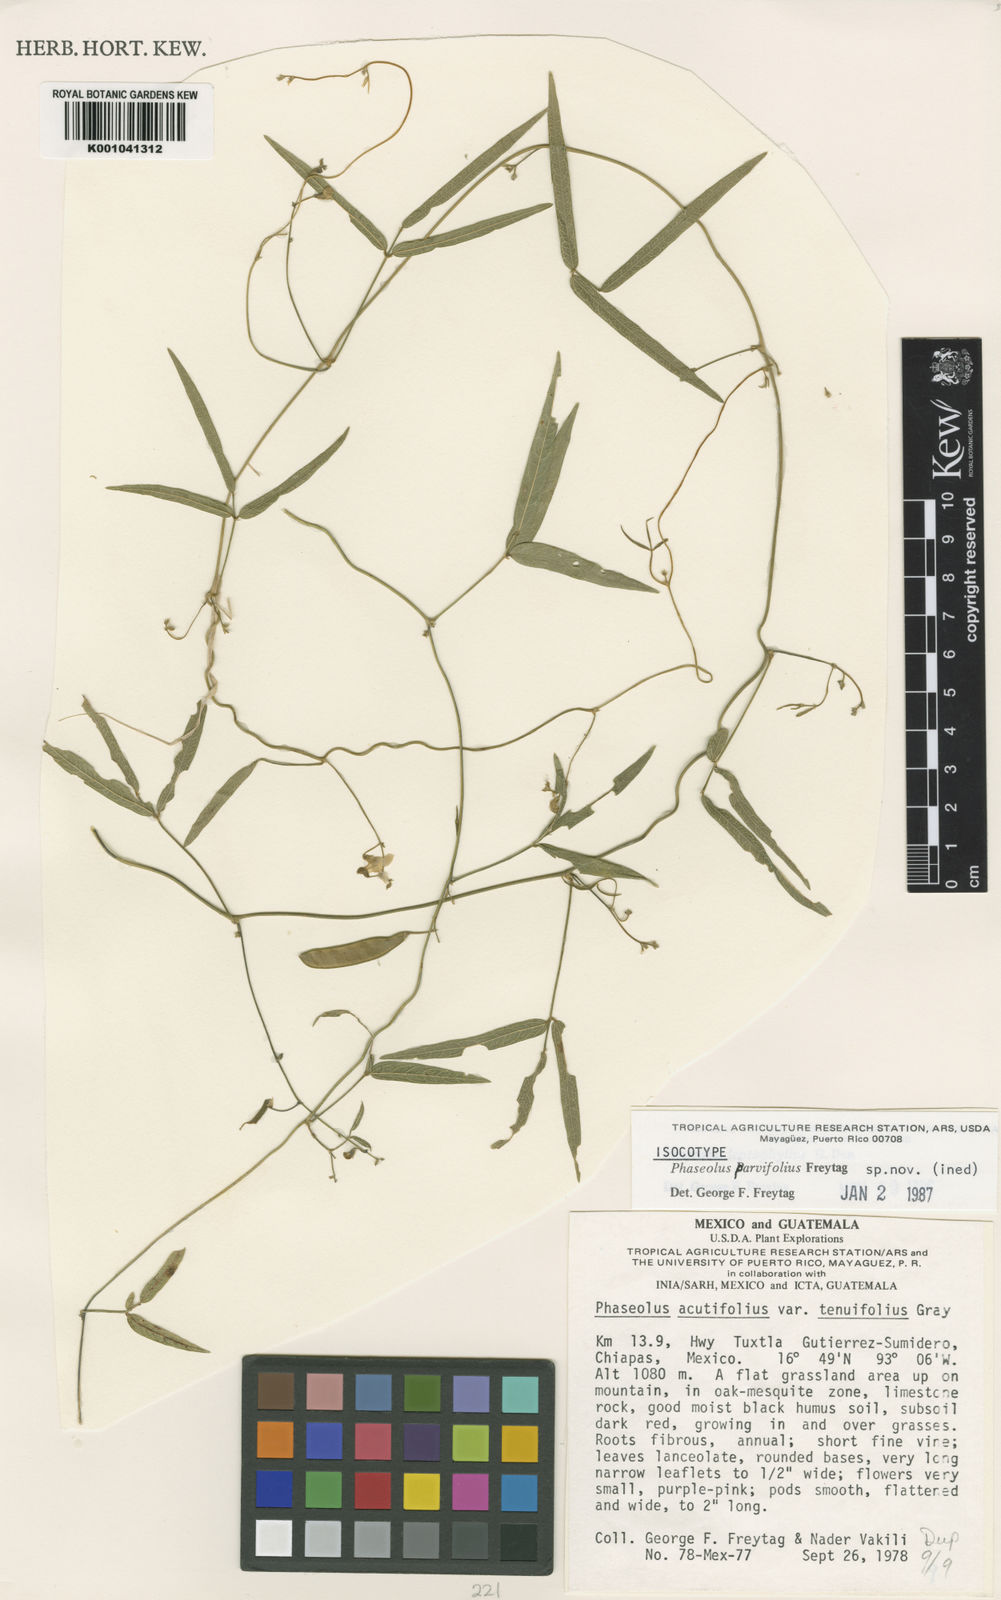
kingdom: Plantae
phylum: Tracheophyta
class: Magnoliopsida
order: Fabales
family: Fabaceae
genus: Phaseolus
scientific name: Phaseolus acutifolius
